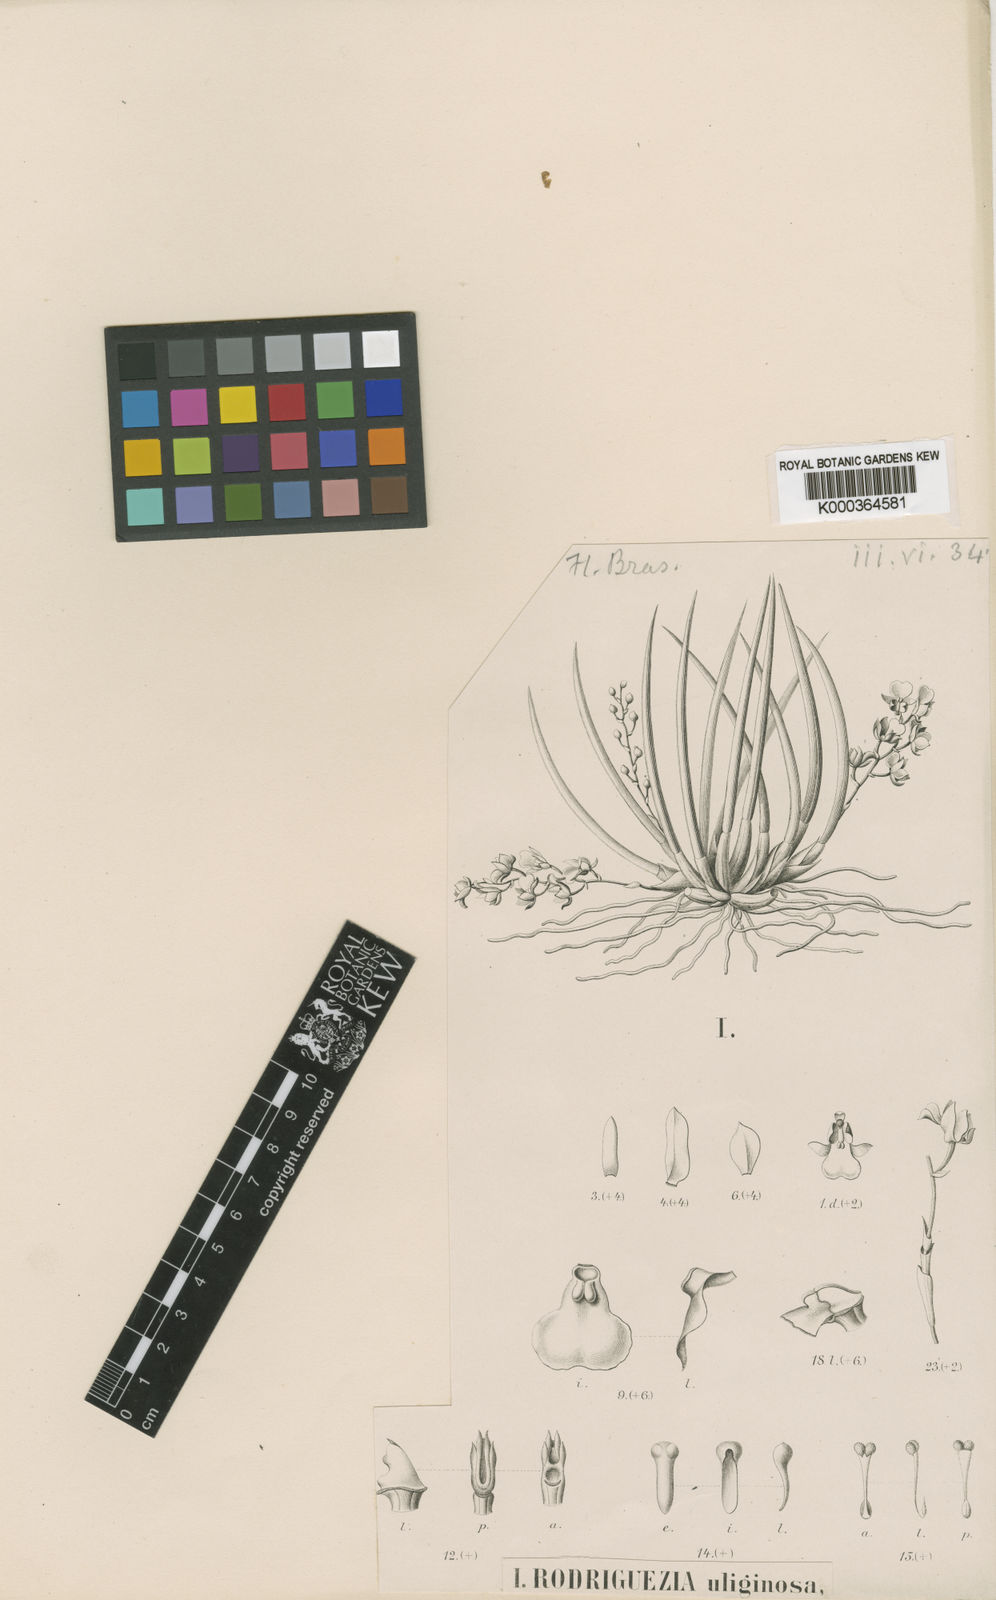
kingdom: Plantae
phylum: Tracheophyta
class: Liliopsida
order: Asparagales
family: Orchidaceae
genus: Capanemia
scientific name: Capanemia superflua
